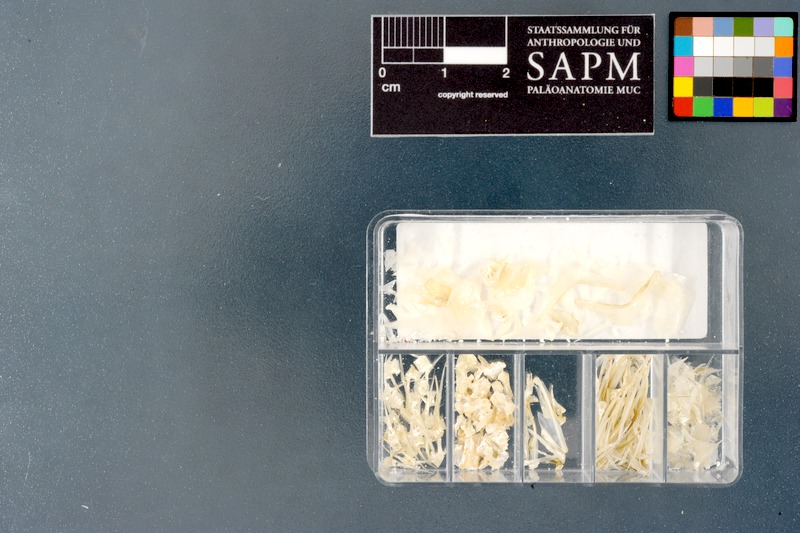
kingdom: Animalia
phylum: Chordata
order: Cypriniformes
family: Cyprinidae
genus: Trigonostigma
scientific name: Trigonostigma somphongsi
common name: Somphongs’s rasbora
